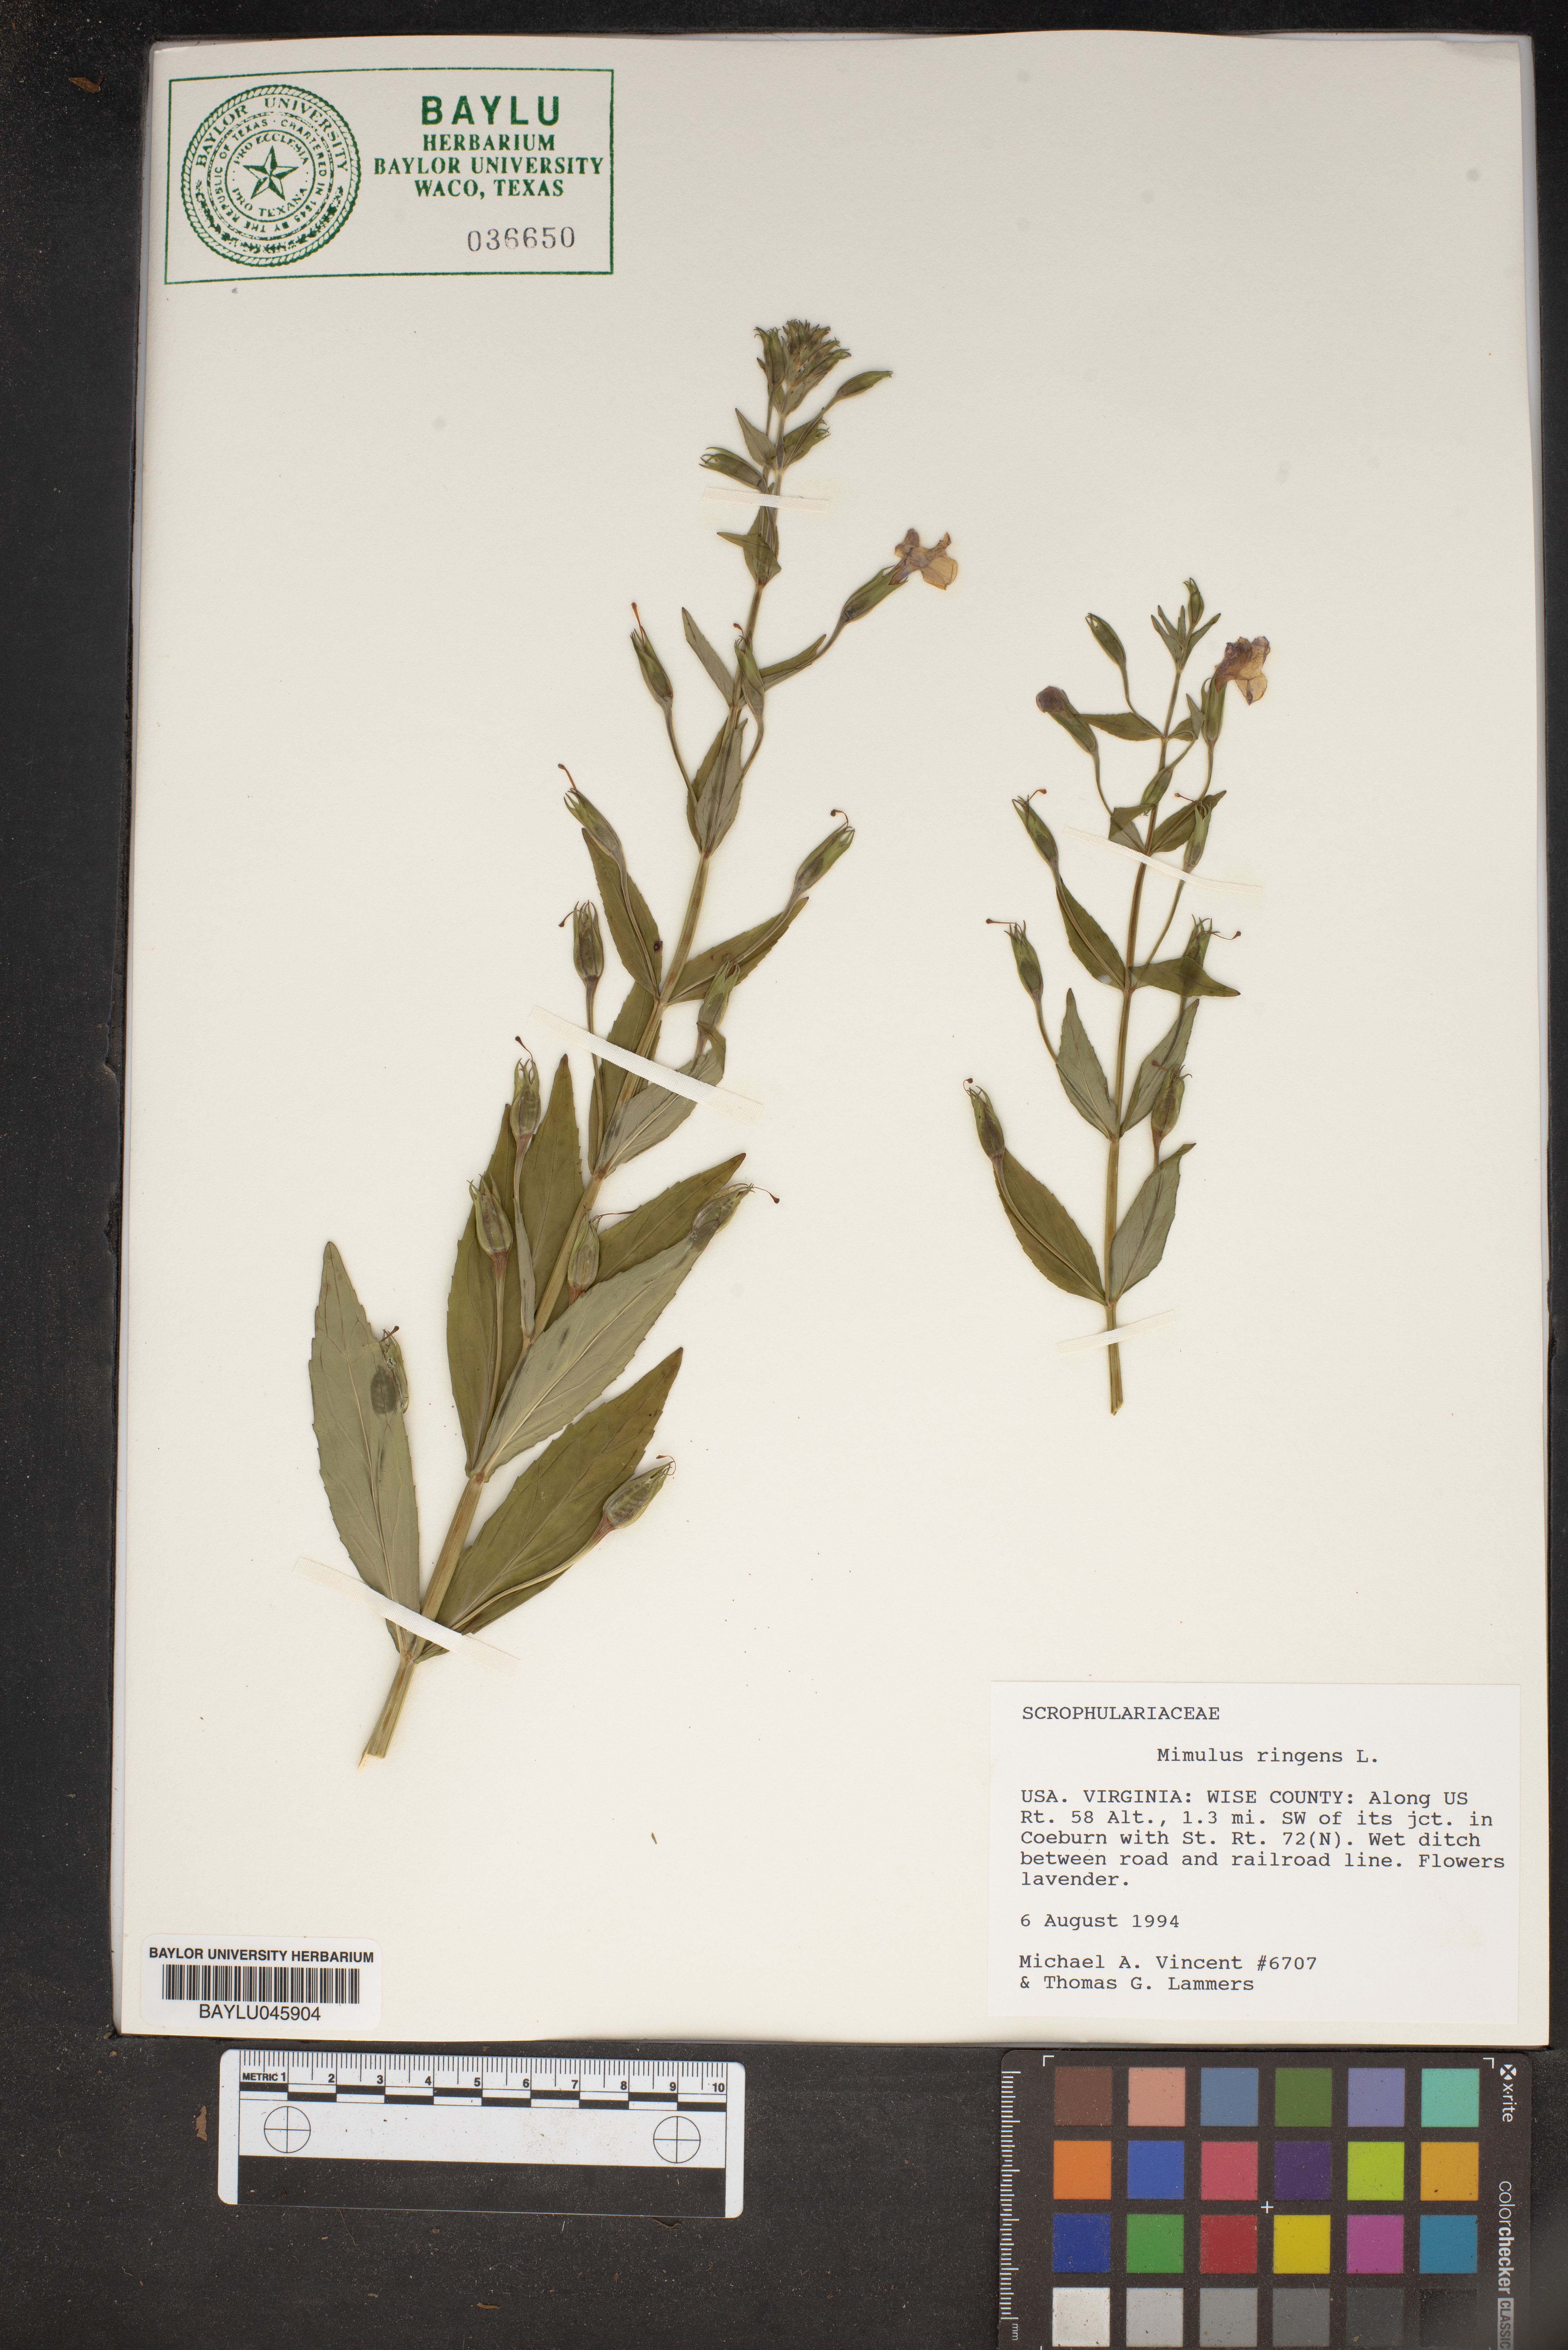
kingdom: Plantae
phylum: Tracheophyta
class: Magnoliopsida
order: Lamiales
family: Phrymaceae
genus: Mimulus
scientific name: Mimulus ringens
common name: Allegheny monkeyflower
